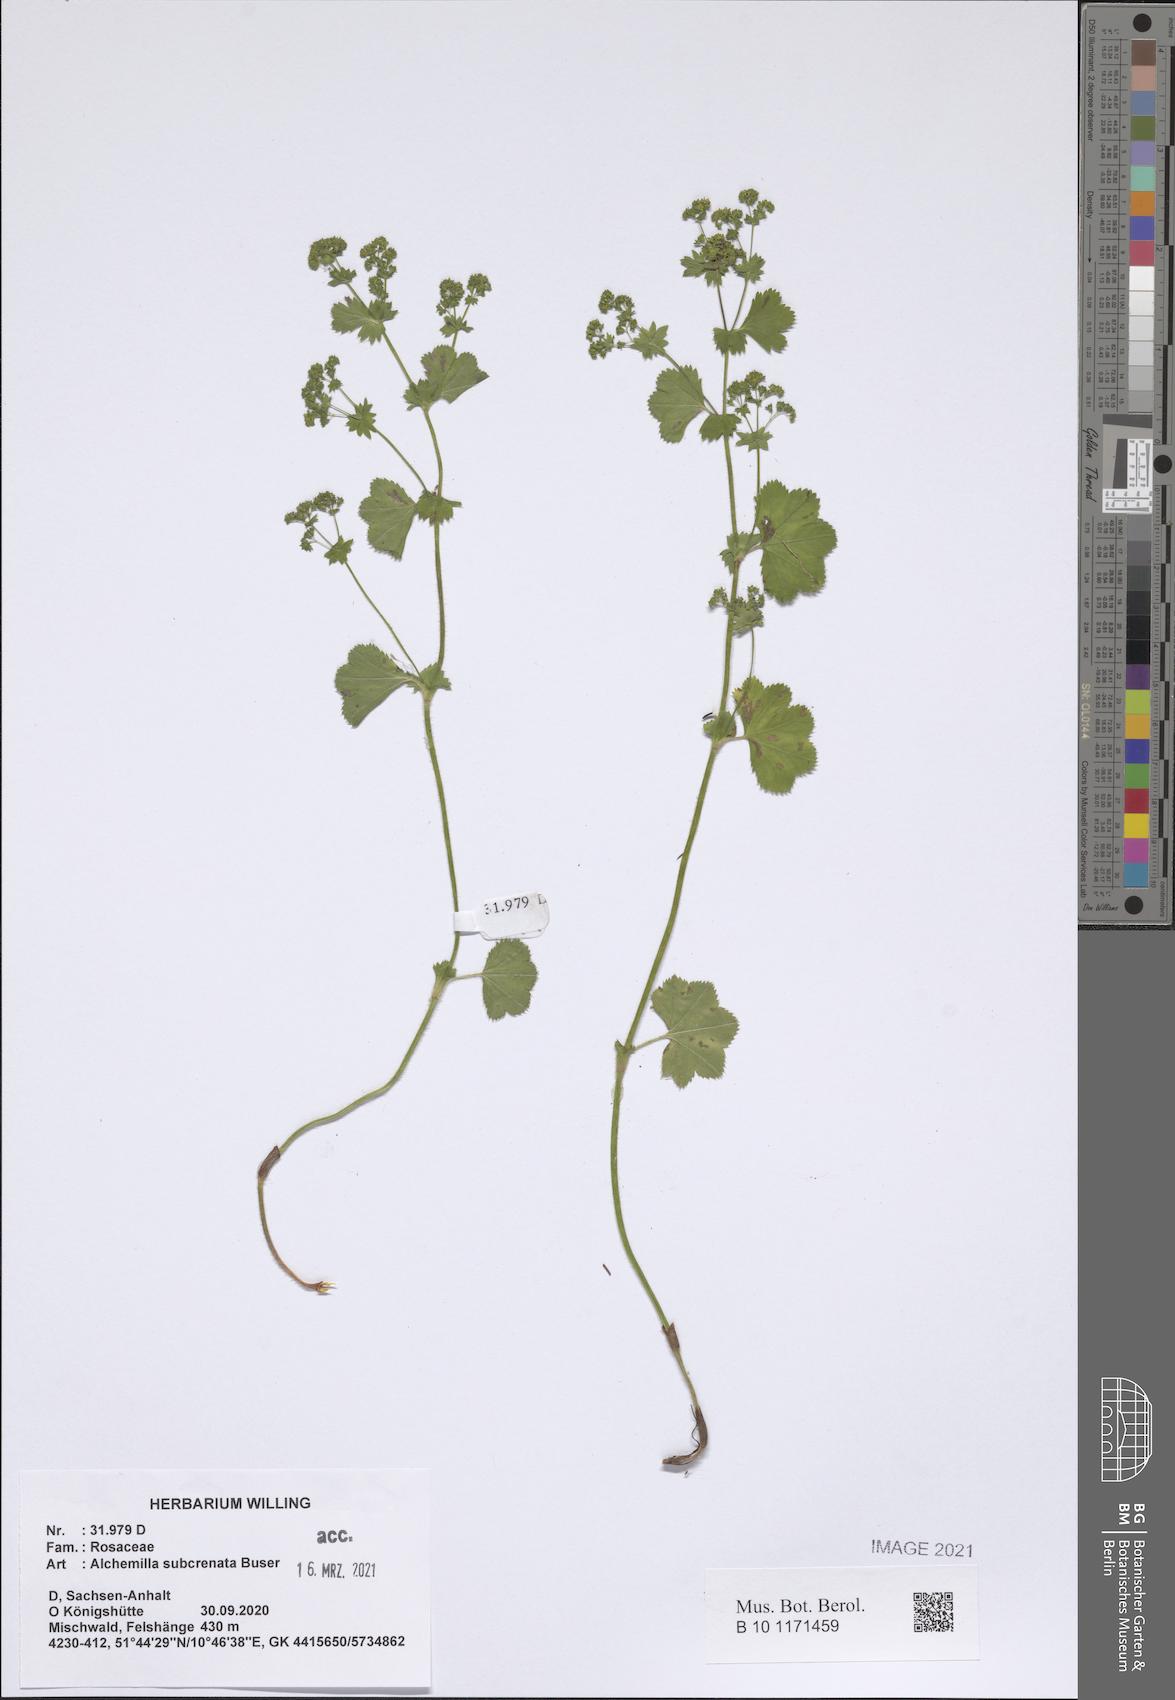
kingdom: Plantae
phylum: Tracheophyta
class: Magnoliopsida
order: Rosales
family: Rosaceae
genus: Alchemilla
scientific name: Alchemilla subcrenata
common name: Broadtooth lady's mantle
